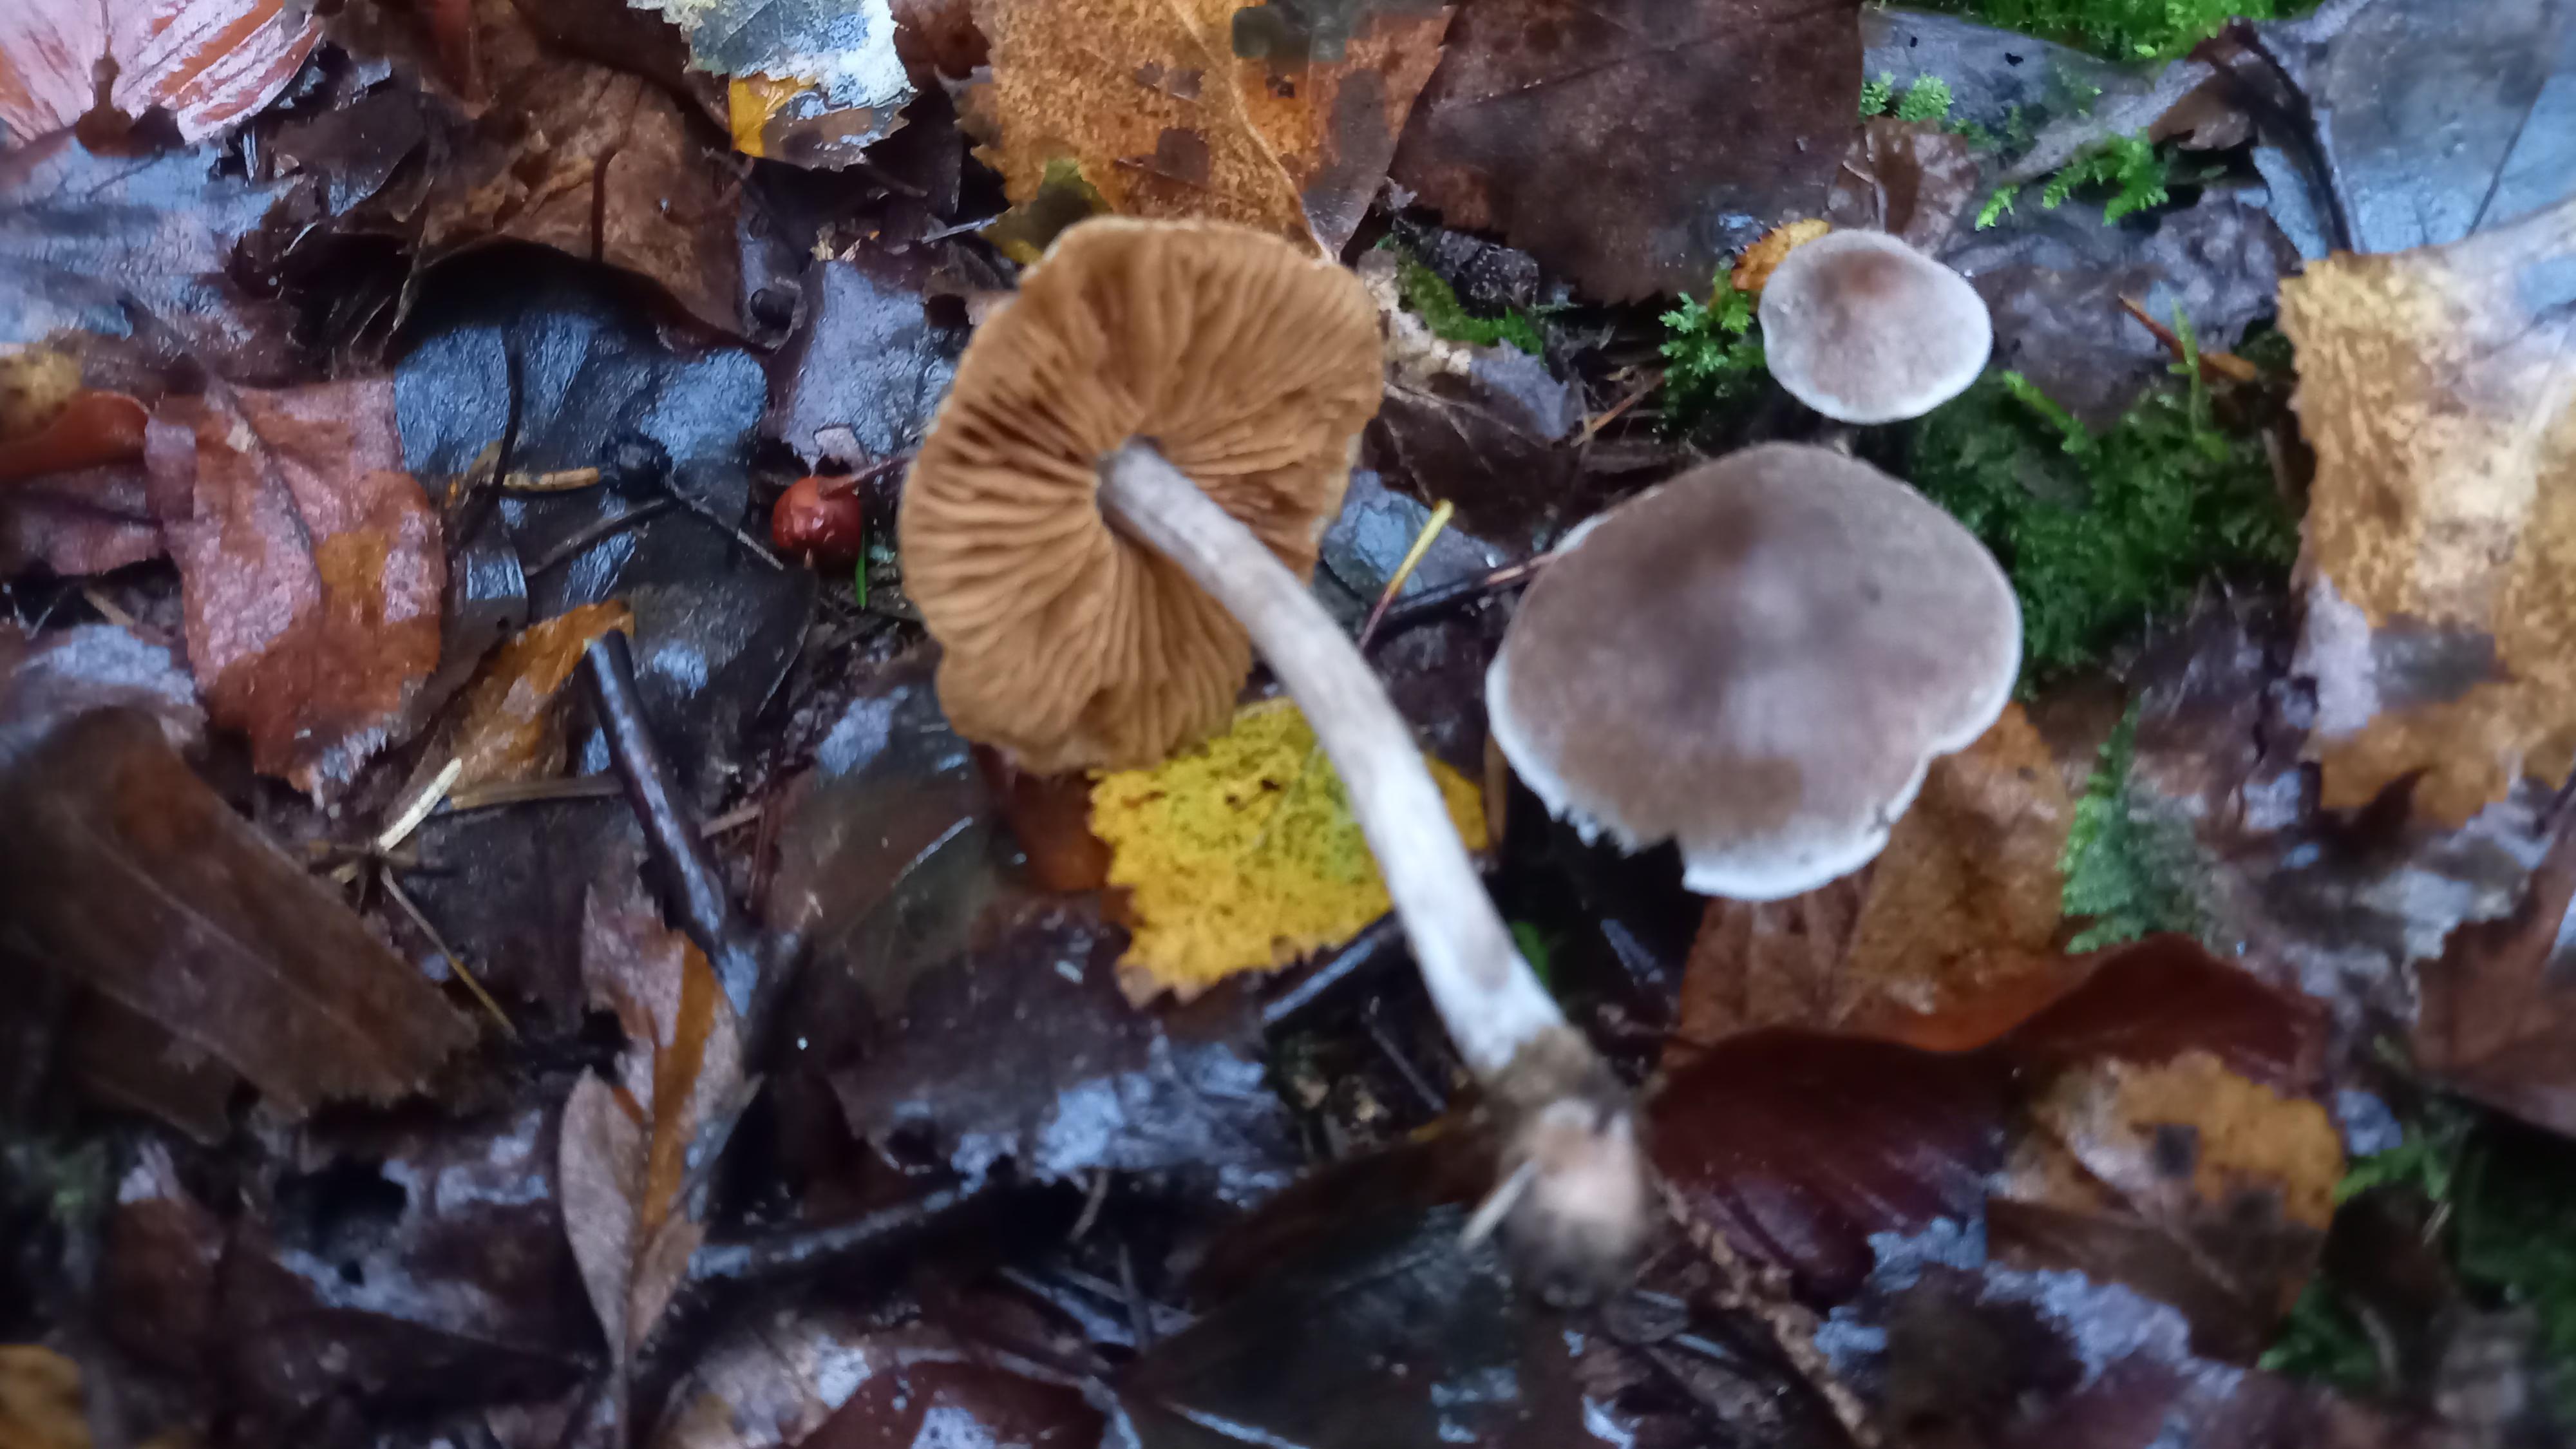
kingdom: Fungi
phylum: Basidiomycota
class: Agaricomycetes
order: Agaricales
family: Cortinariaceae
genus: Cortinarius
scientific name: Cortinarius
